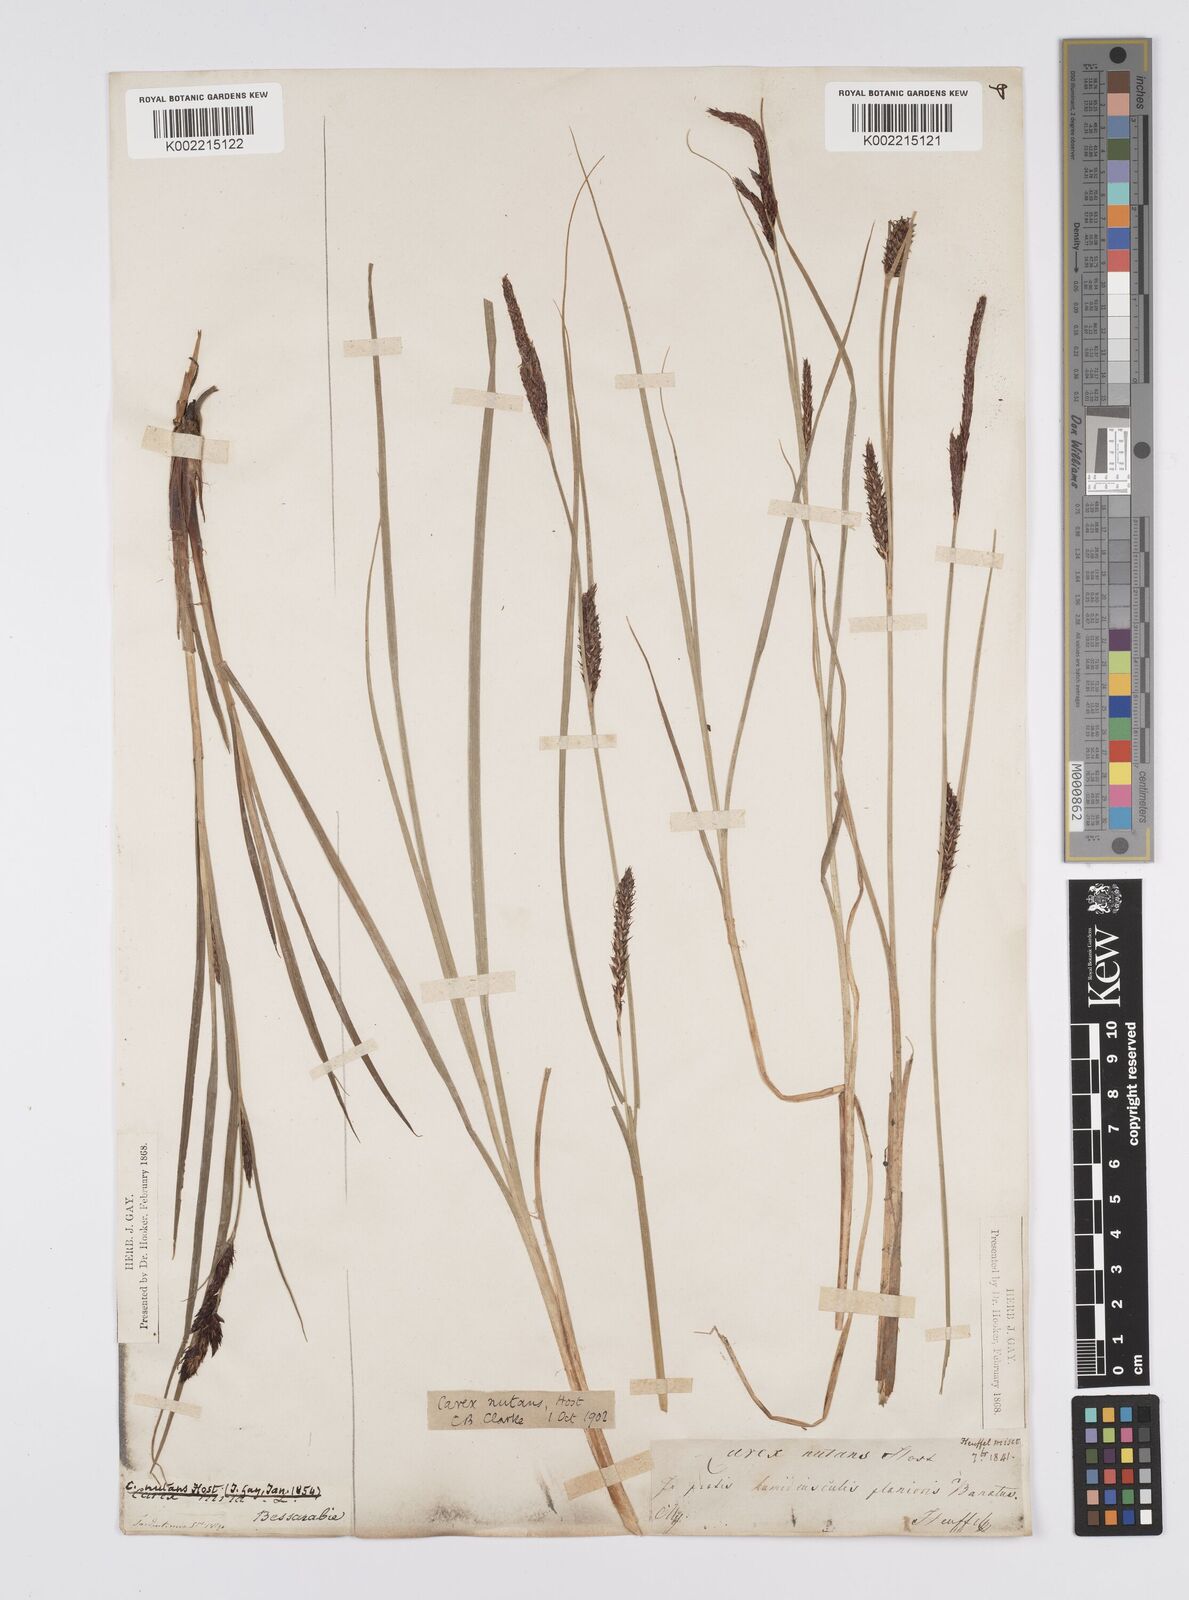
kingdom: Plantae
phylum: Tracheophyta
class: Liliopsida
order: Poales
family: Cyperaceae
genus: Carex
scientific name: Carex melanostachya
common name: Black-spiked sedge
